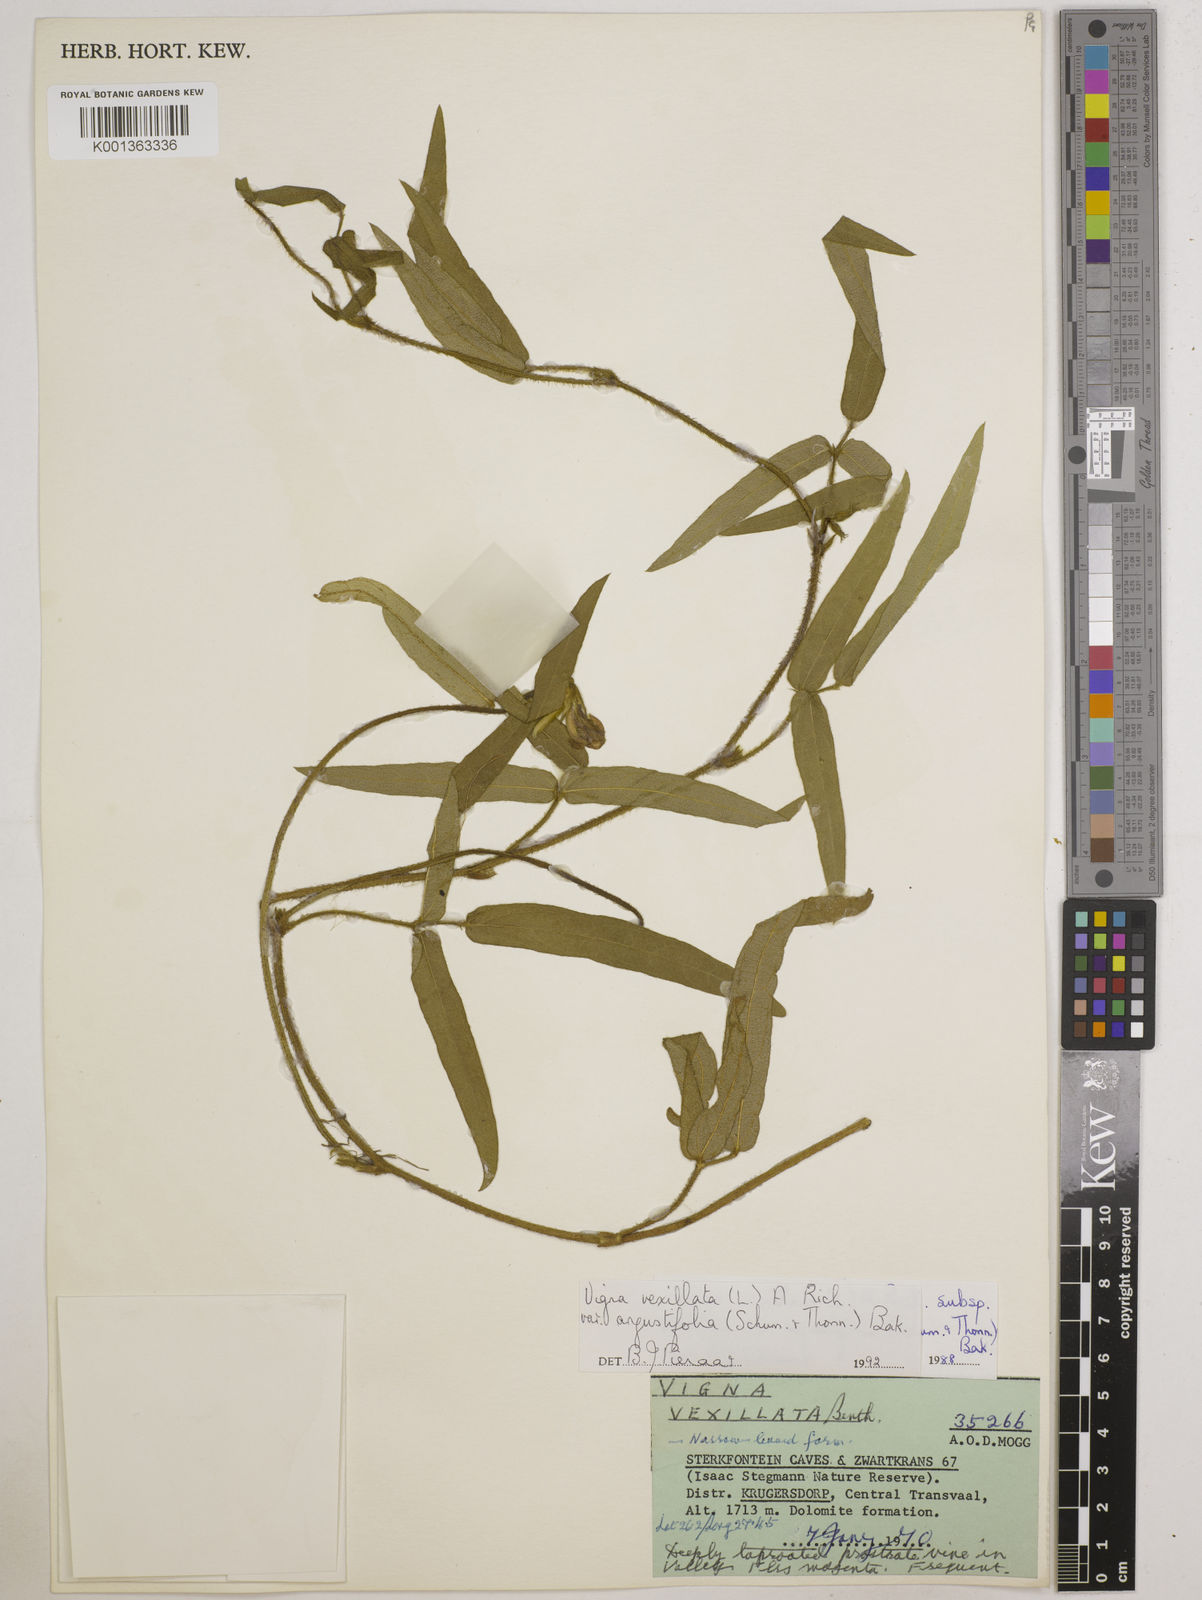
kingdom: Plantae
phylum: Tracheophyta
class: Magnoliopsida
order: Fabales
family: Fabaceae
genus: Vigna
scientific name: Vigna
